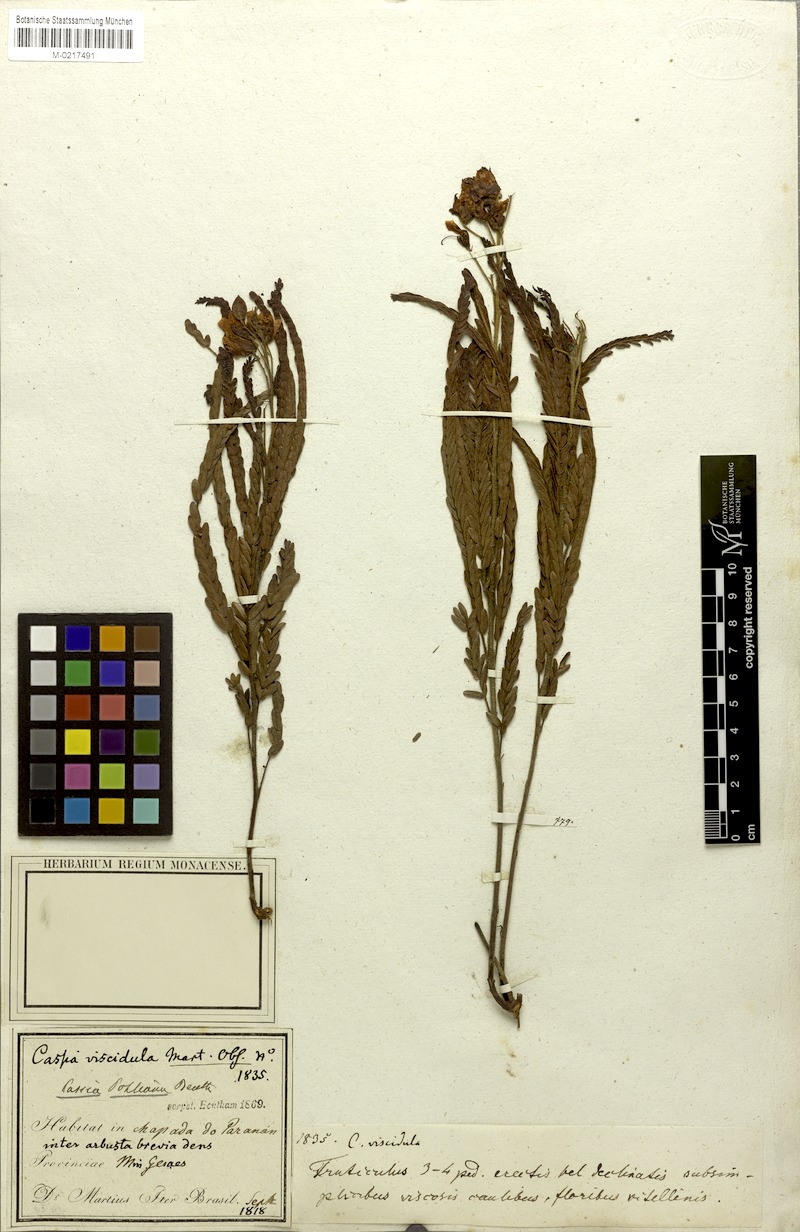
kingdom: Plantae
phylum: Tracheophyta
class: Magnoliopsida
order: Fabales
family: Fabaceae
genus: Chamaecrista
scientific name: Chamaecrista pohliana
